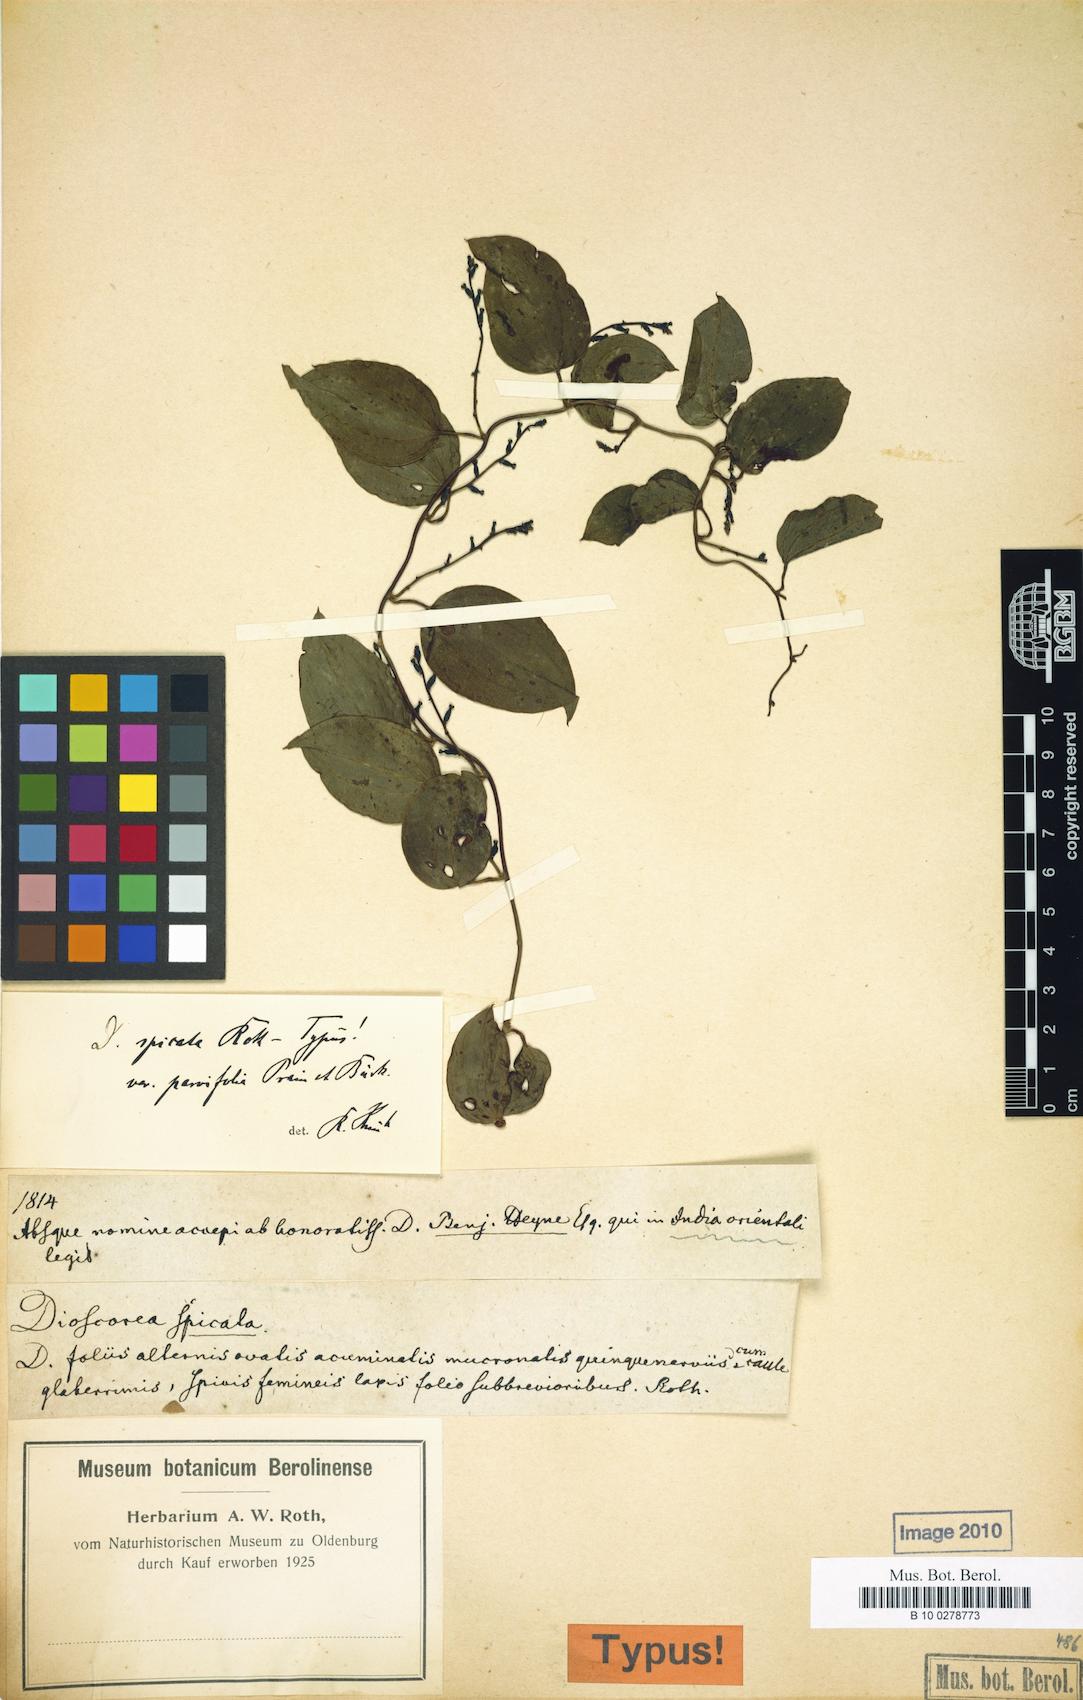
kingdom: Plantae
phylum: Tracheophyta
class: Liliopsida
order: Dioscoreales
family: Dioscoreaceae
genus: Dioscorea
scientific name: Dioscorea spicata
